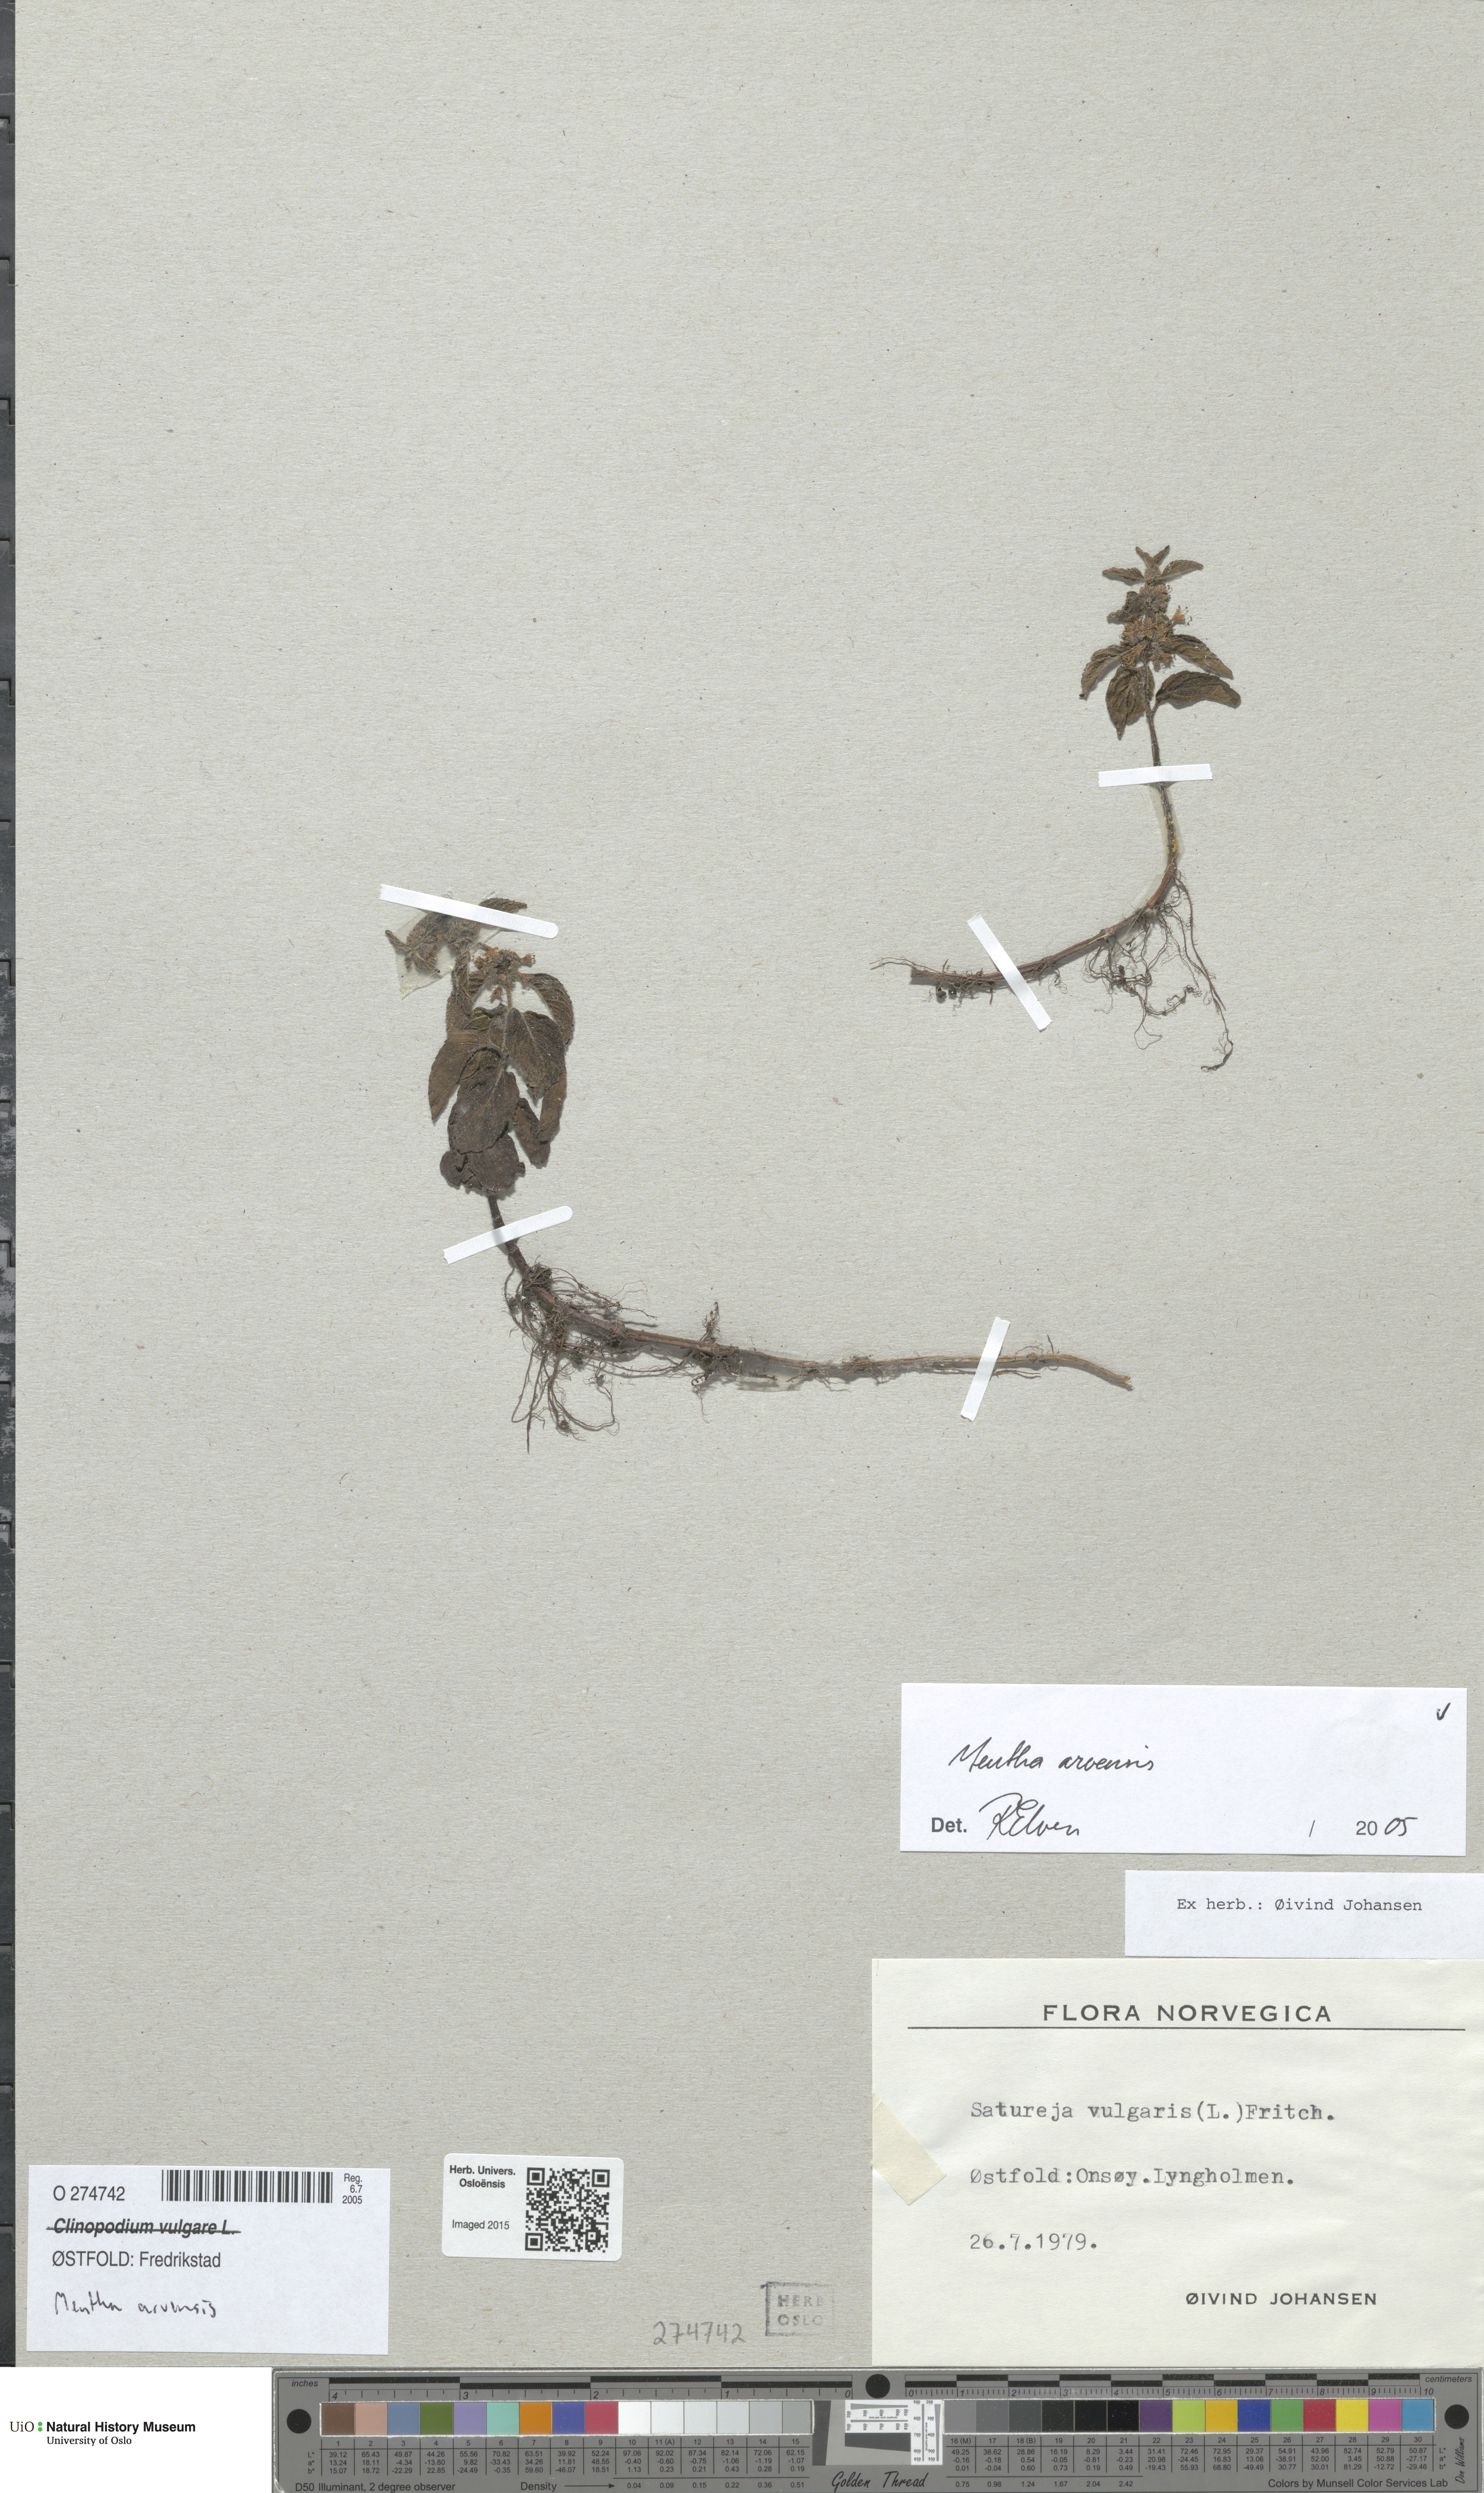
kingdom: Plantae
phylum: Tracheophyta
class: Magnoliopsida
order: Lamiales
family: Lamiaceae
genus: Mentha
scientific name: Mentha arvensis
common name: Corn mint
